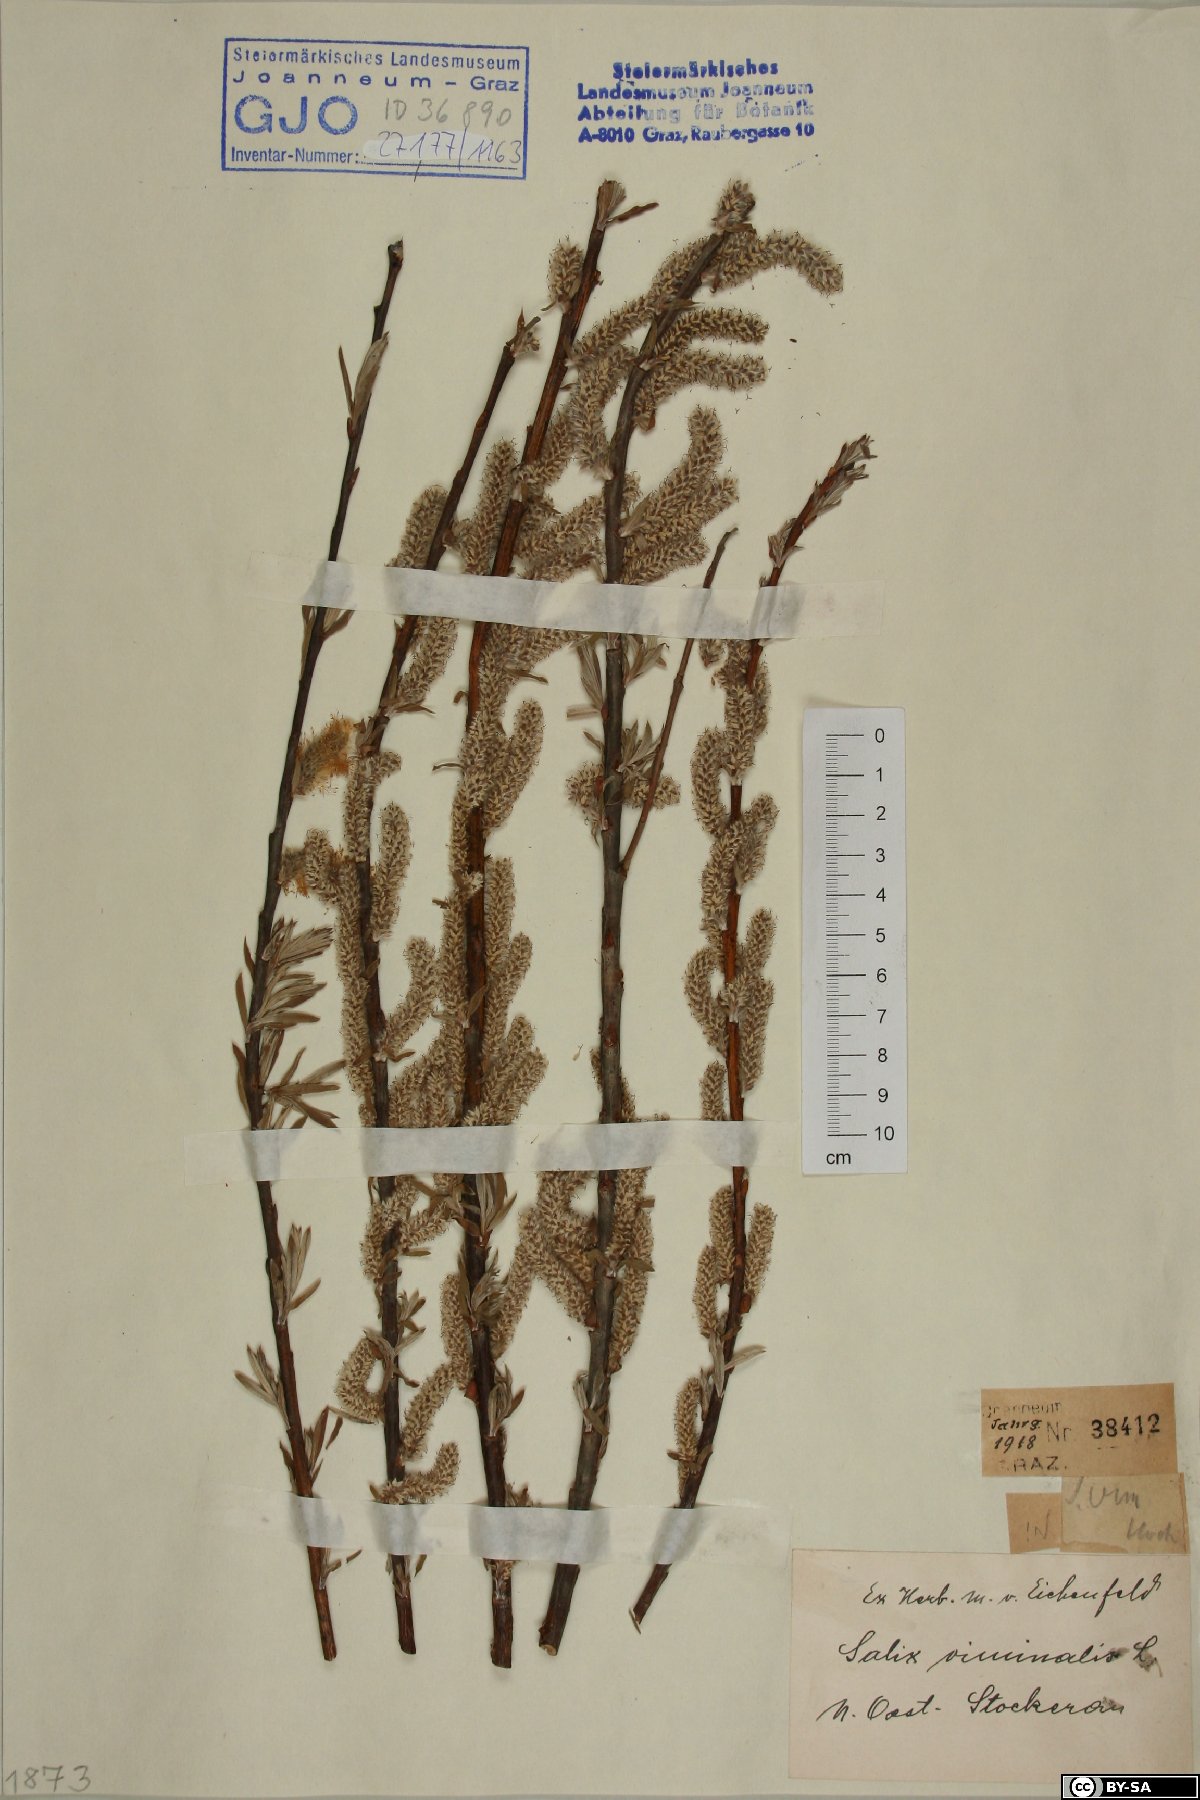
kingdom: Plantae
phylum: Tracheophyta
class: Magnoliopsida
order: Malpighiales
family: Salicaceae
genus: Salix
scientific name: Salix viminalis
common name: Osier
